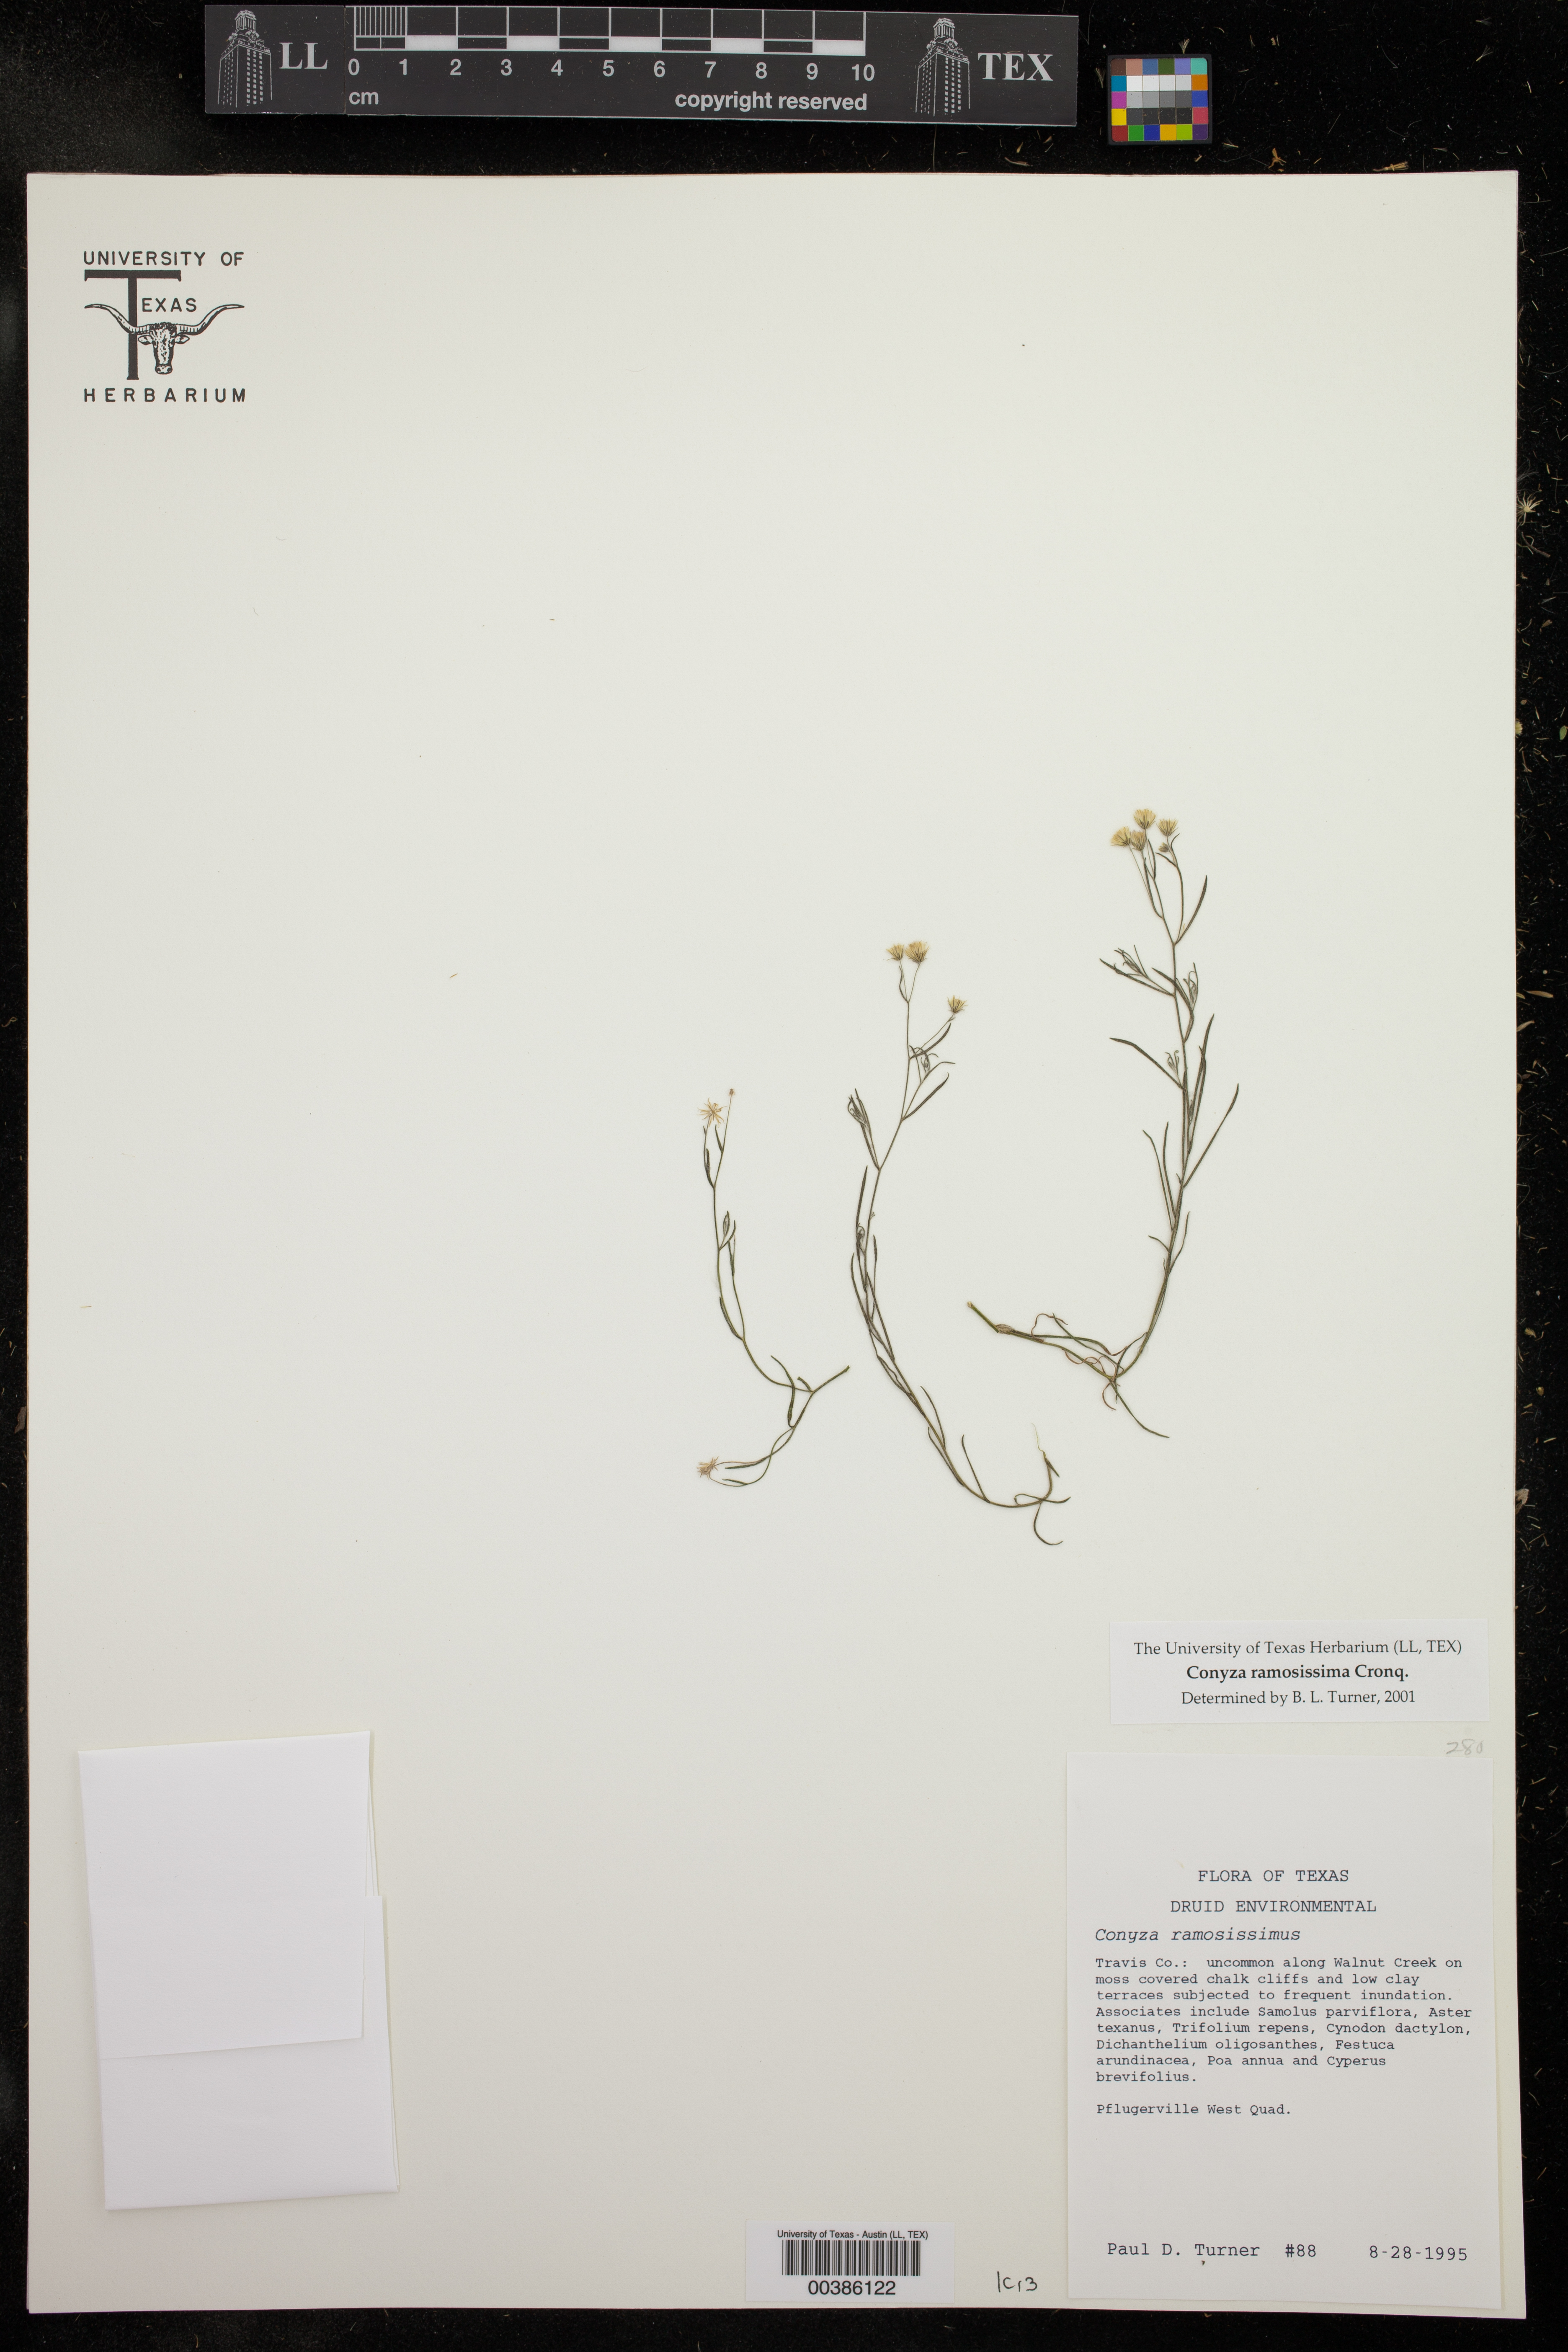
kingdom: Plantae
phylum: Tracheophyta
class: Magnoliopsida
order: Asterales
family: Asteraceae
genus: Erigeron
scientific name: Erigeron canadensis
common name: Canadian fleabane
